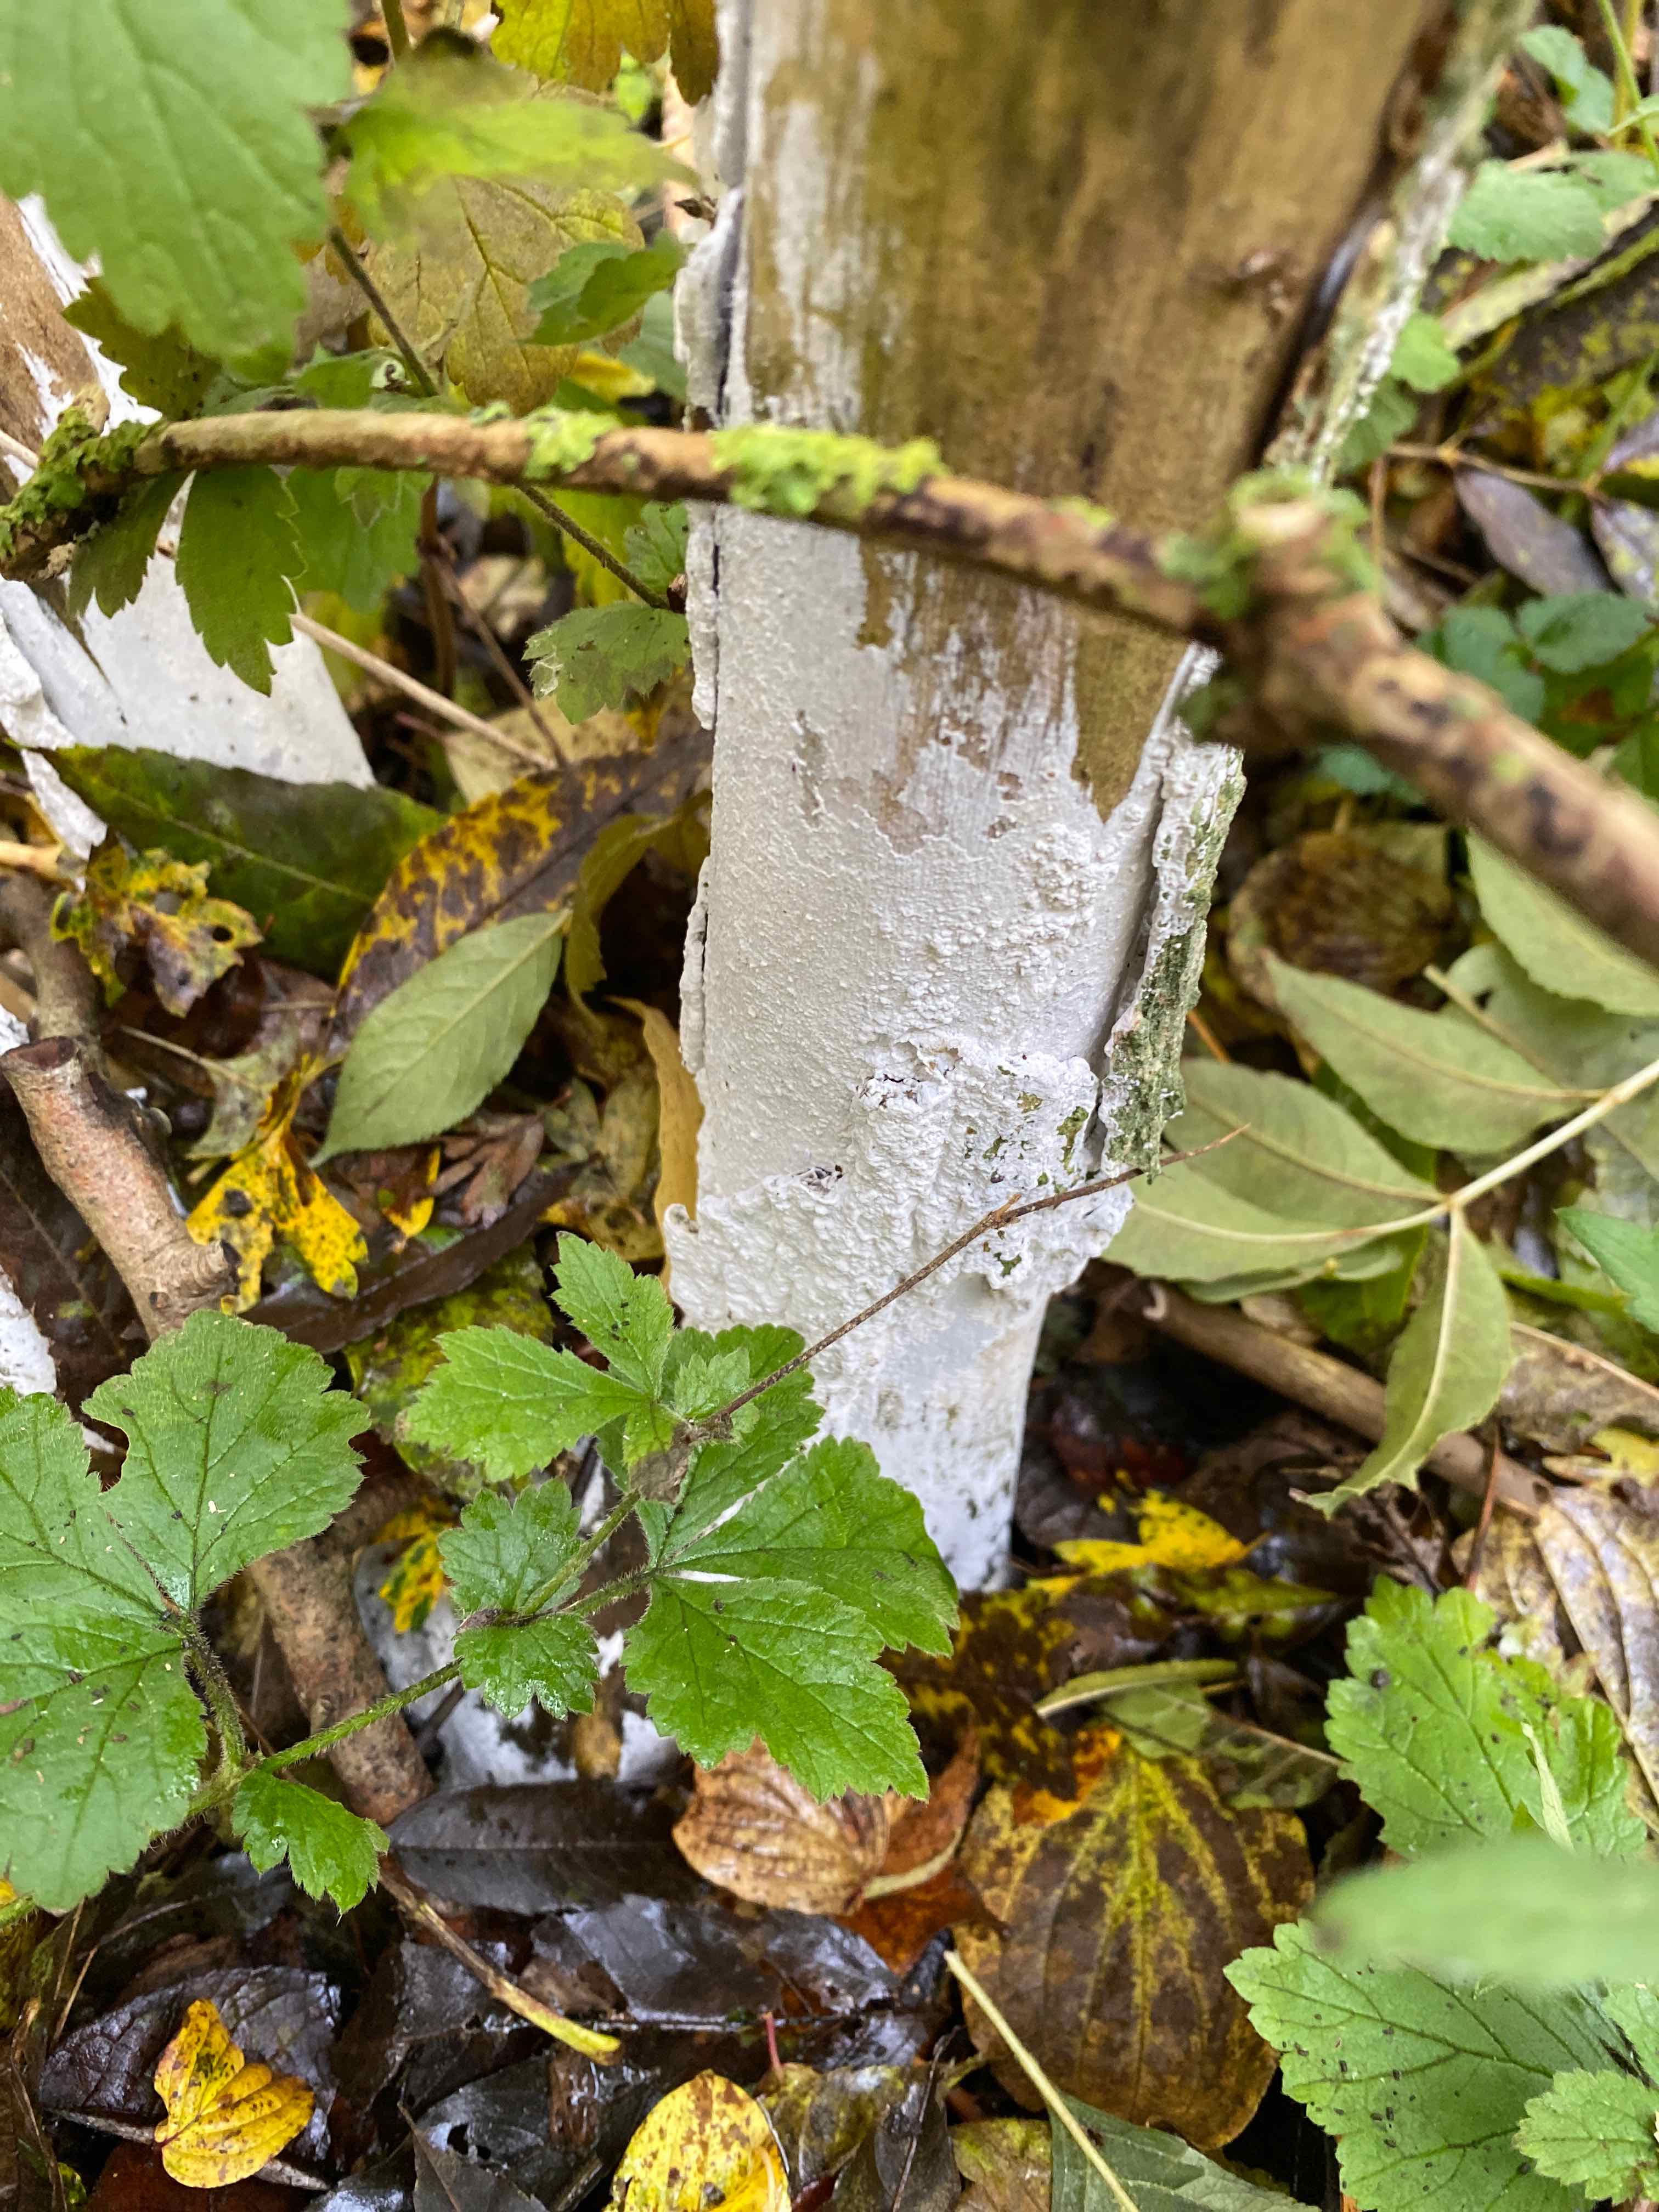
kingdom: Fungi
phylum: Basidiomycota
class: Agaricomycetes
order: Corticiales
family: Corticiaceae
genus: Lyomyces
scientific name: Lyomyces sambuci
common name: almindelig hyldehinde
